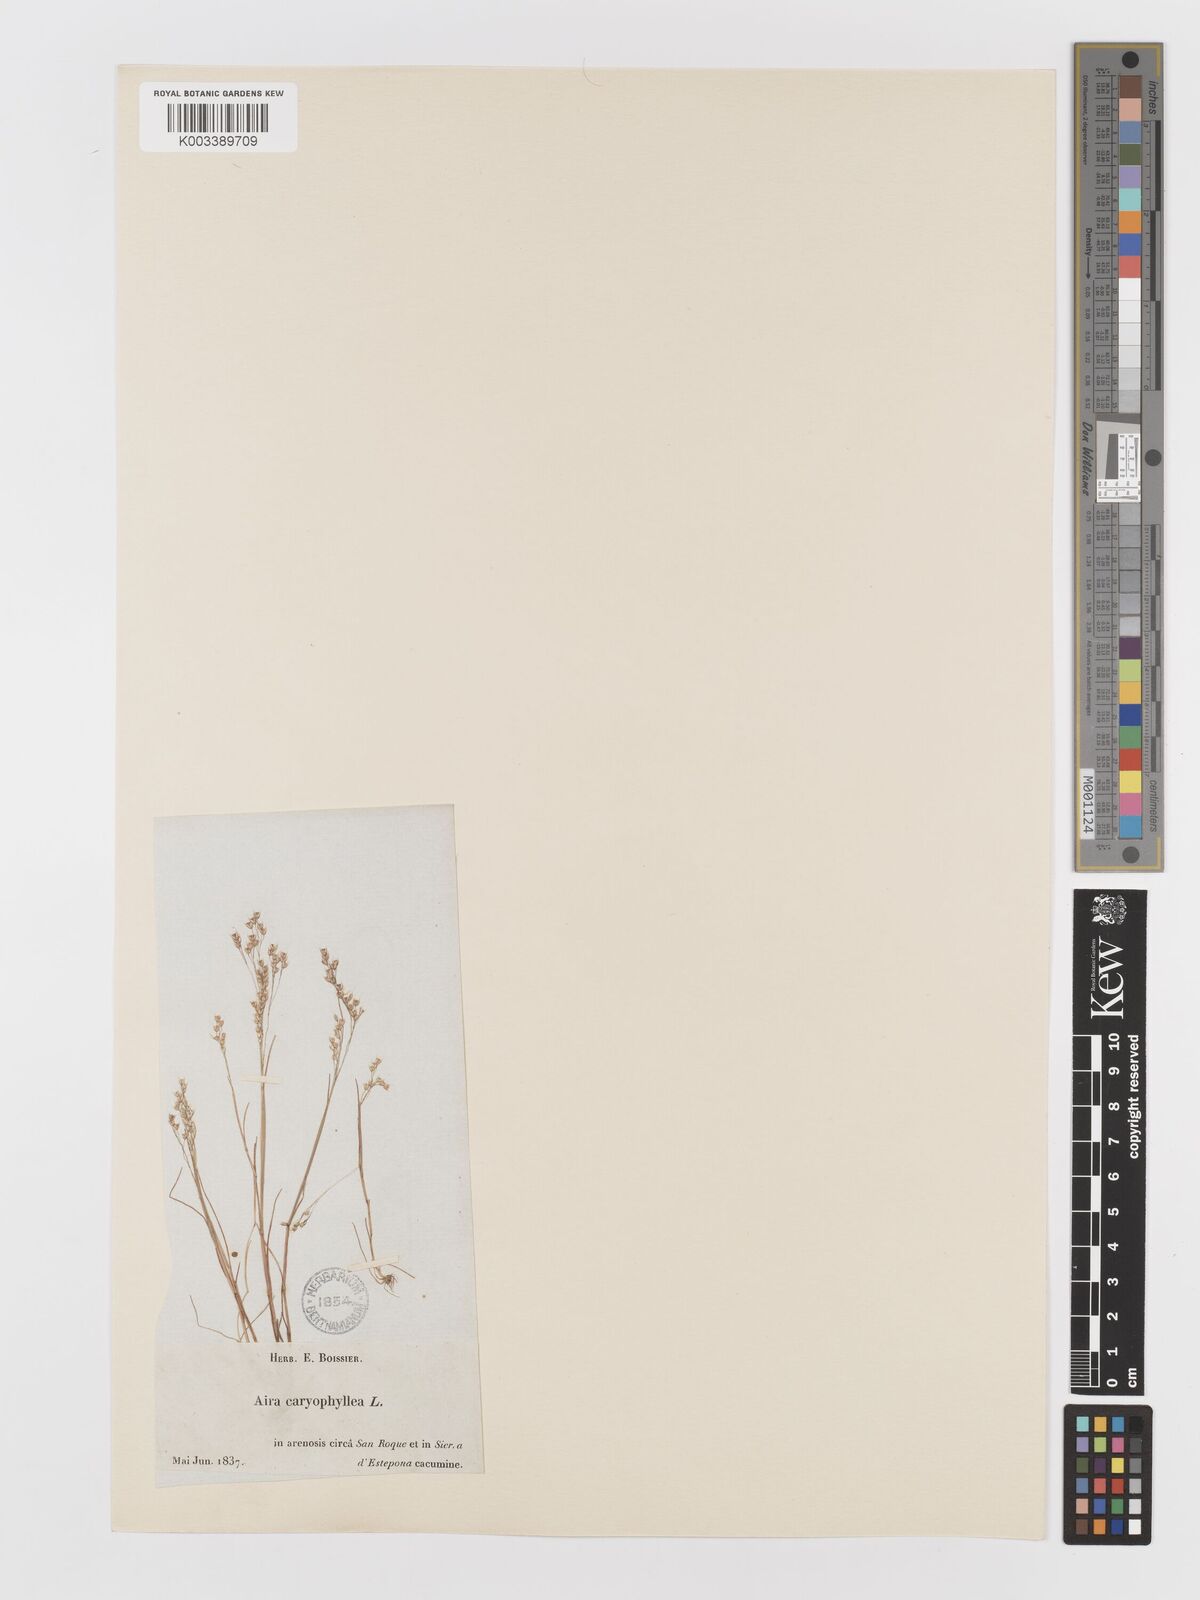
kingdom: Plantae
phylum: Tracheophyta
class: Liliopsida
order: Poales
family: Poaceae
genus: Aira
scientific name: Aira caryophyllea
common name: Silver hairgrass
